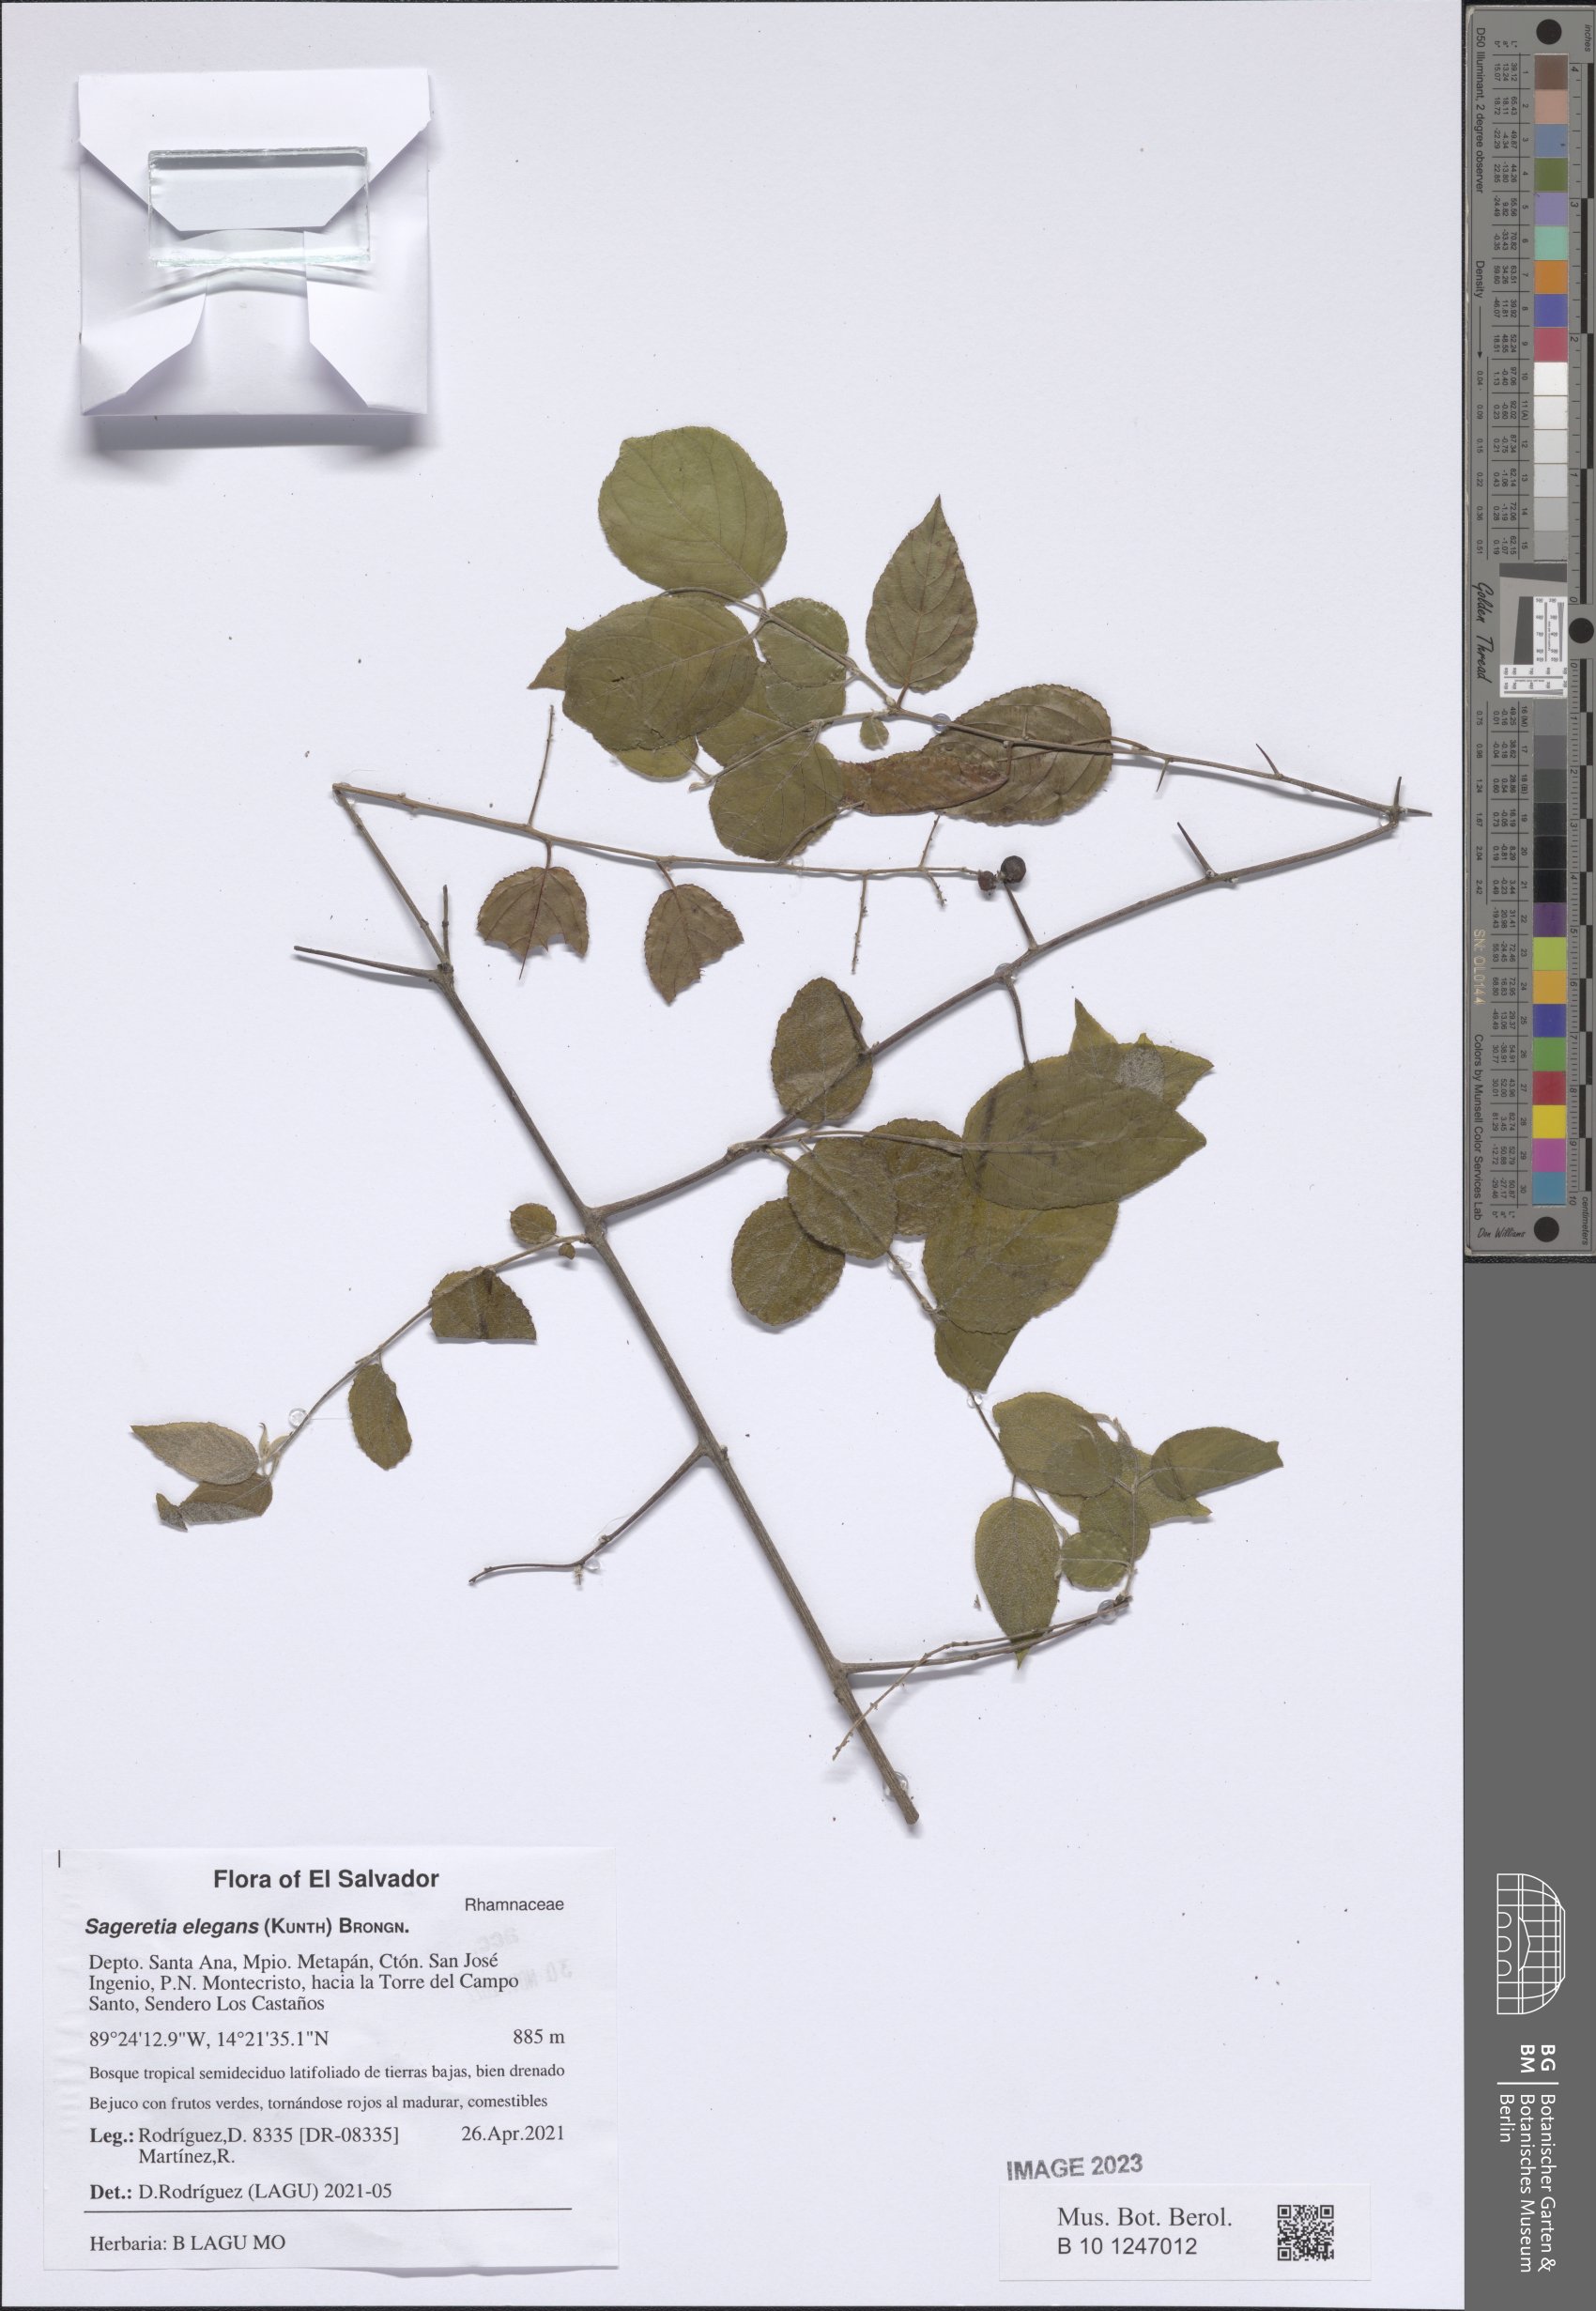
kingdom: Plantae
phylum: Tracheophyta
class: Magnoliopsida
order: Rosales
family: Rhamnaceae
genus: Sageretia
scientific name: Sageretia elegans
